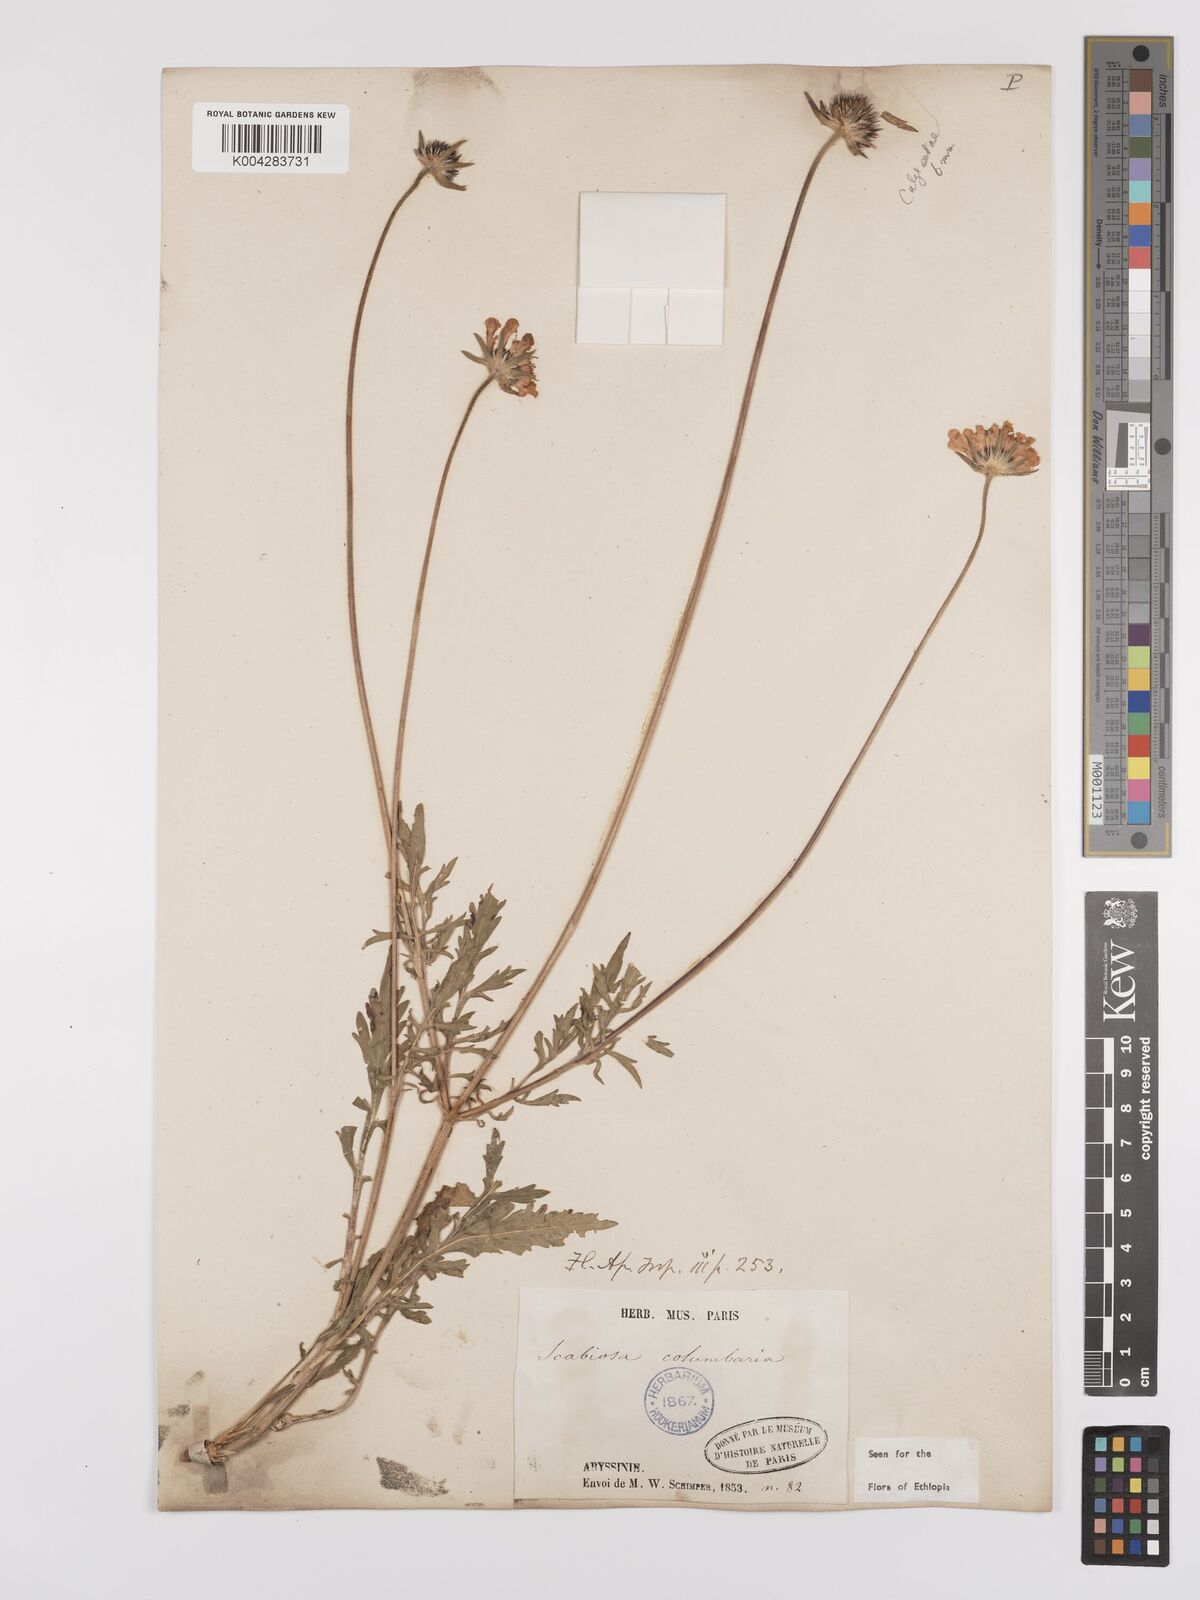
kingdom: Plantae
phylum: Tracheophyta
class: Magnoliopsida
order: Dipsacales
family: Caprifoliaceae
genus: Scabiosa
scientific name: Scabiosa columbaria
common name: Small scabious
